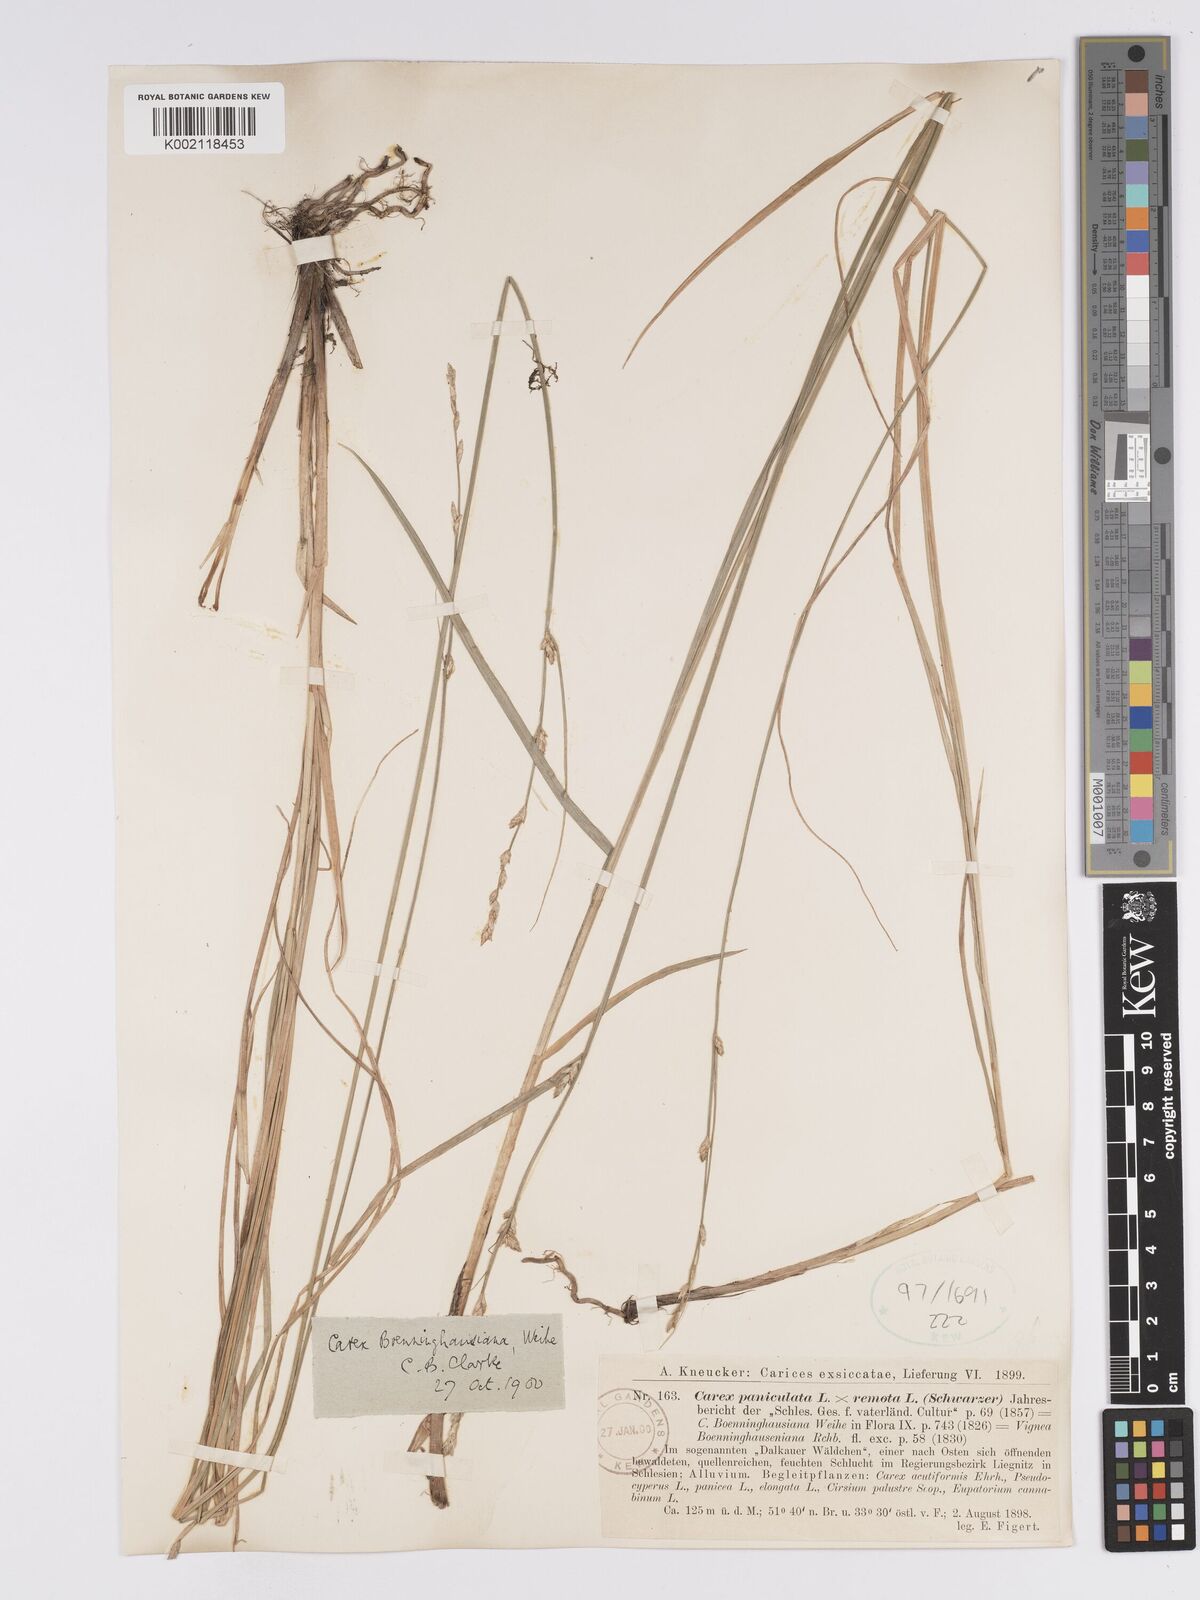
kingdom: Plantae
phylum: Tracheophyta
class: Liliopsida
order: Poales
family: Cyperaceae
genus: Carex
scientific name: Carex boenninghausiana
